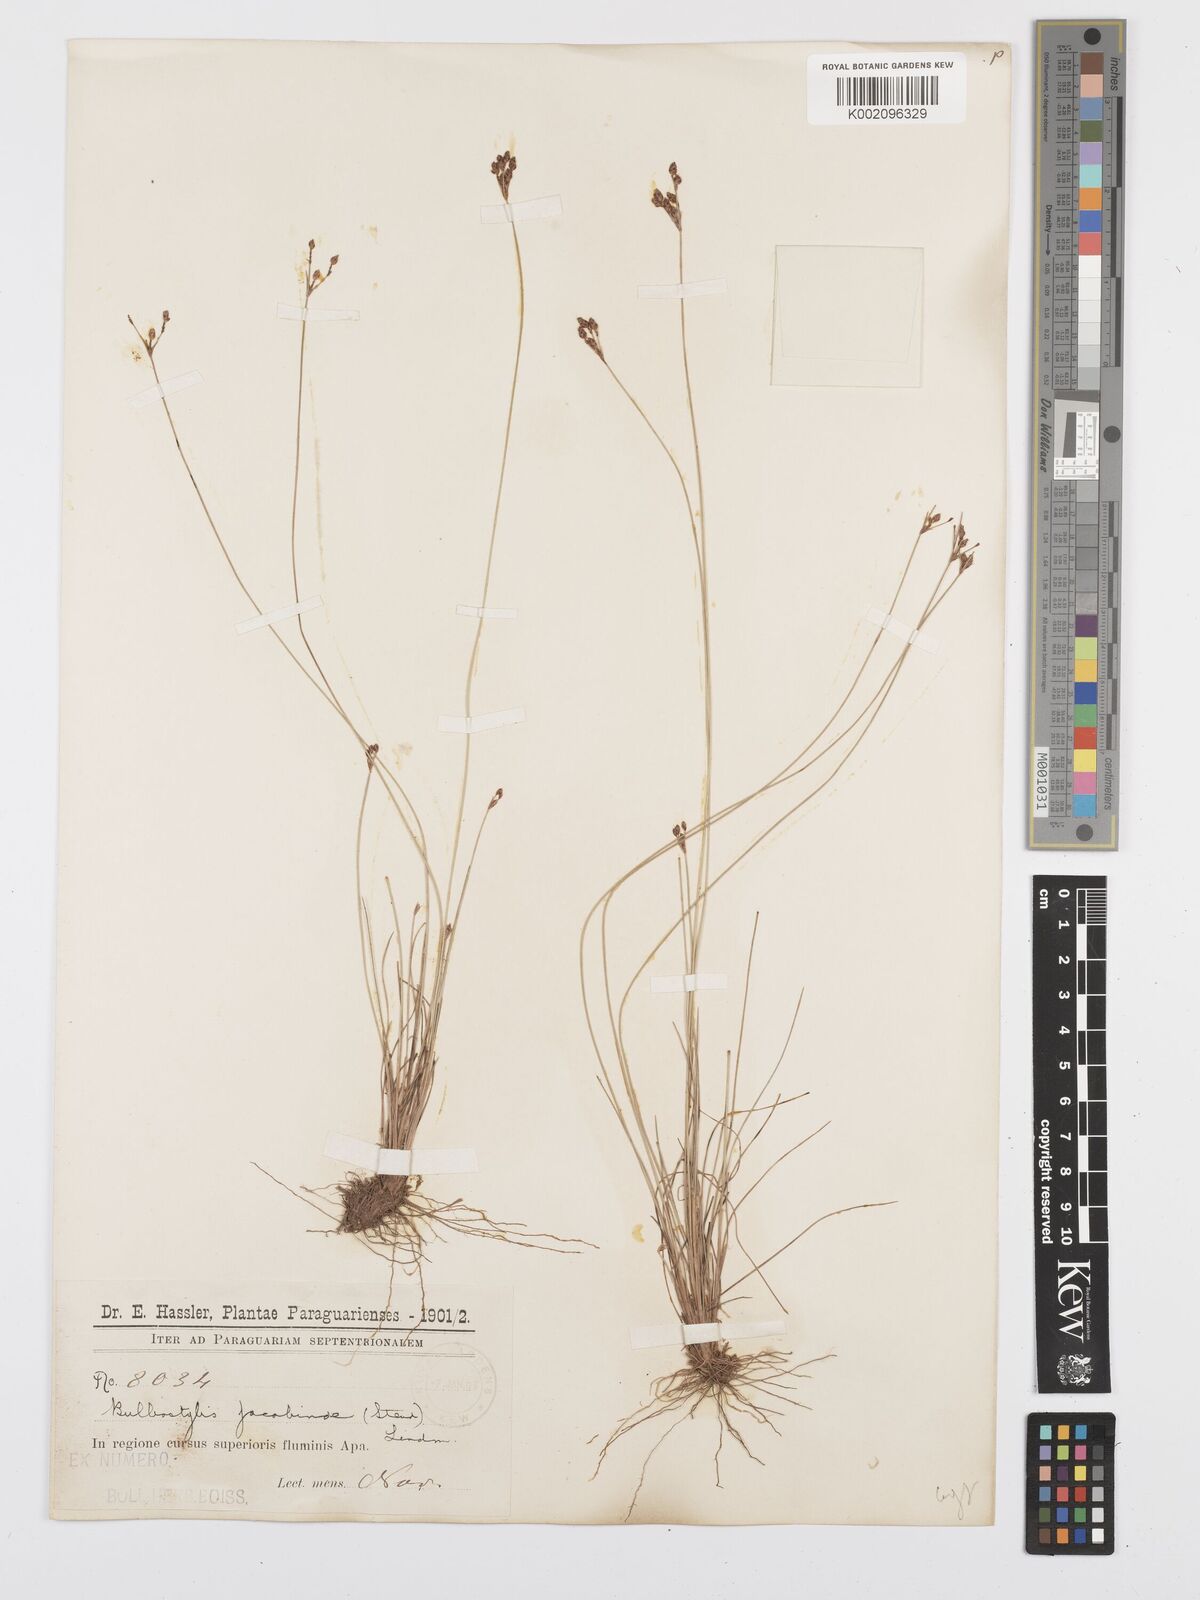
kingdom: Plantae
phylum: Tracheophyta
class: Liliopsida
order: Poales
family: Cyperaceae
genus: Bulbostylis
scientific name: Bulbostylis jacobinae
